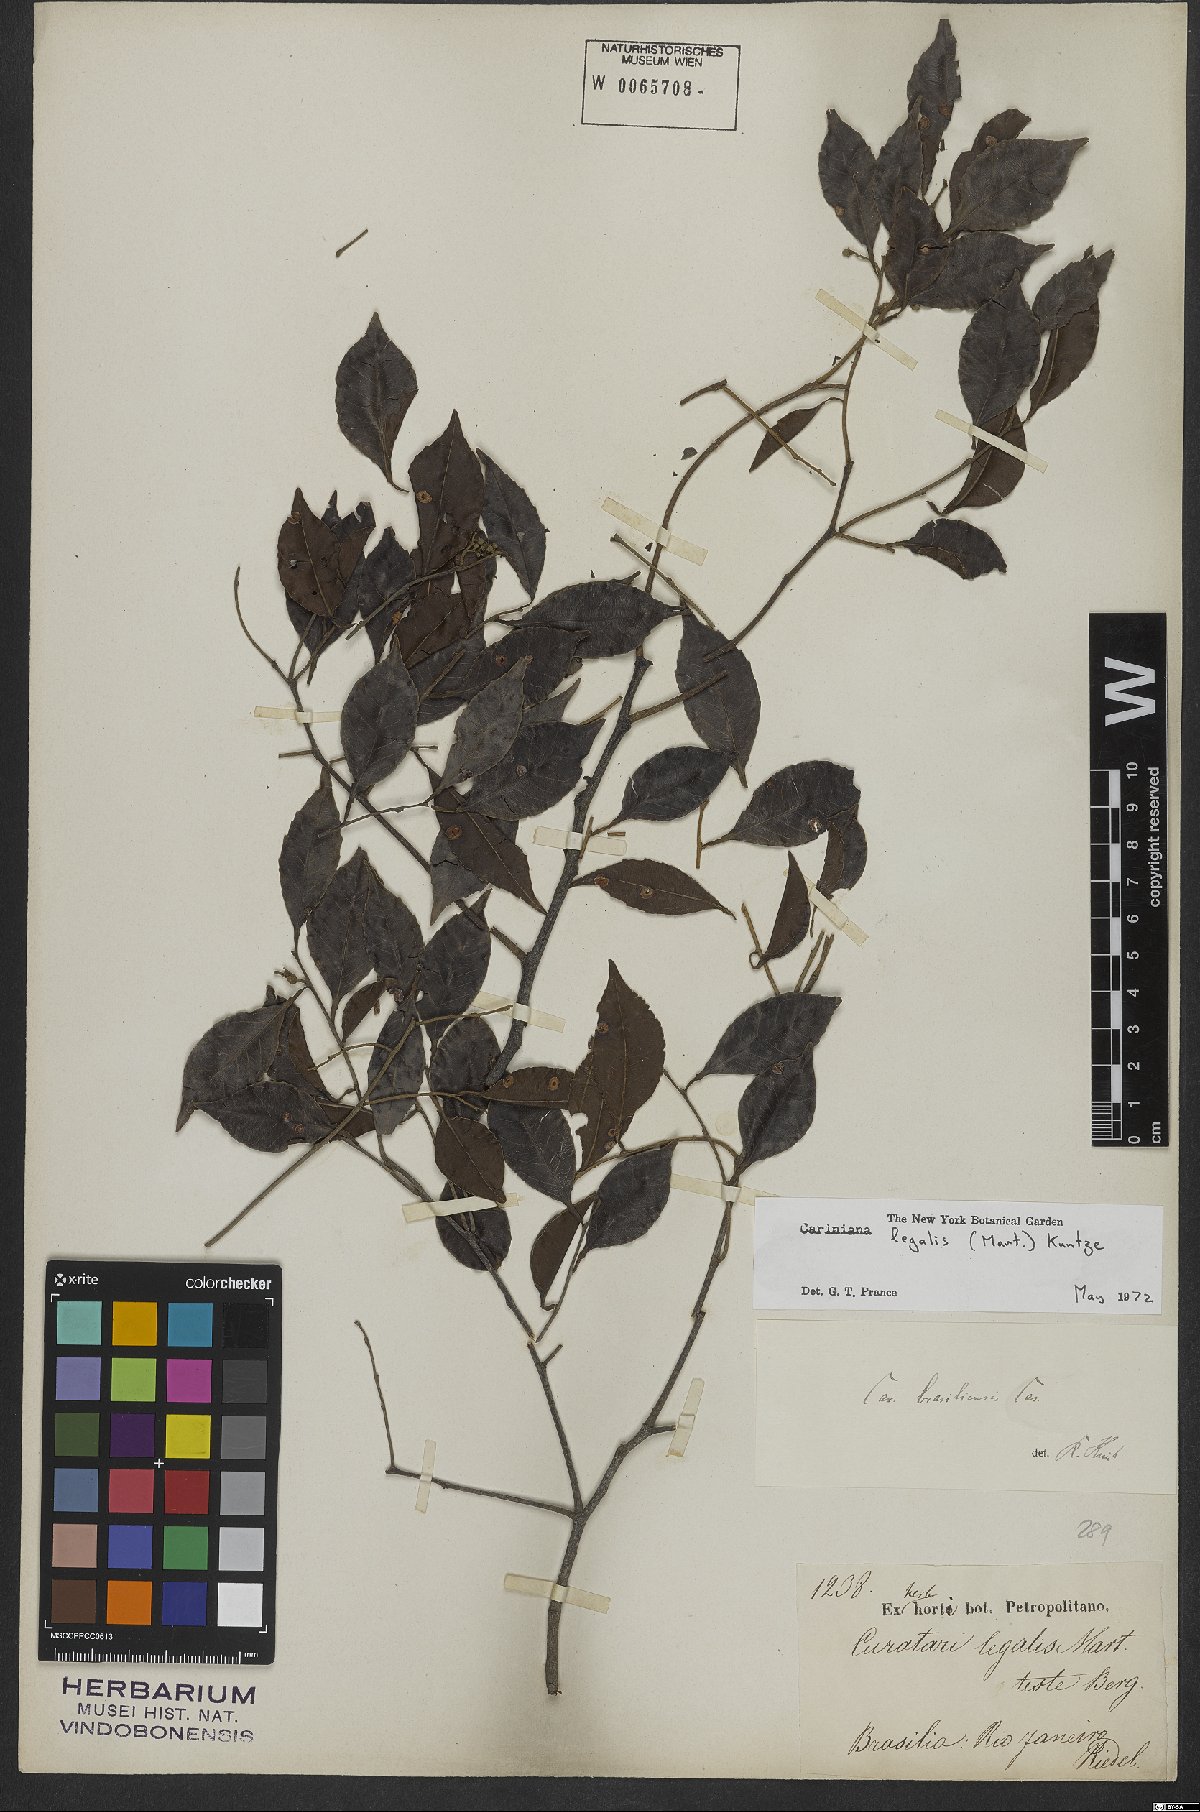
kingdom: Plantae
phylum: Tracheophyta
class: Magnoliopsida
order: Ericales
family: Lecythidaceae
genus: Cariniana
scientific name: Cariniana legalis
